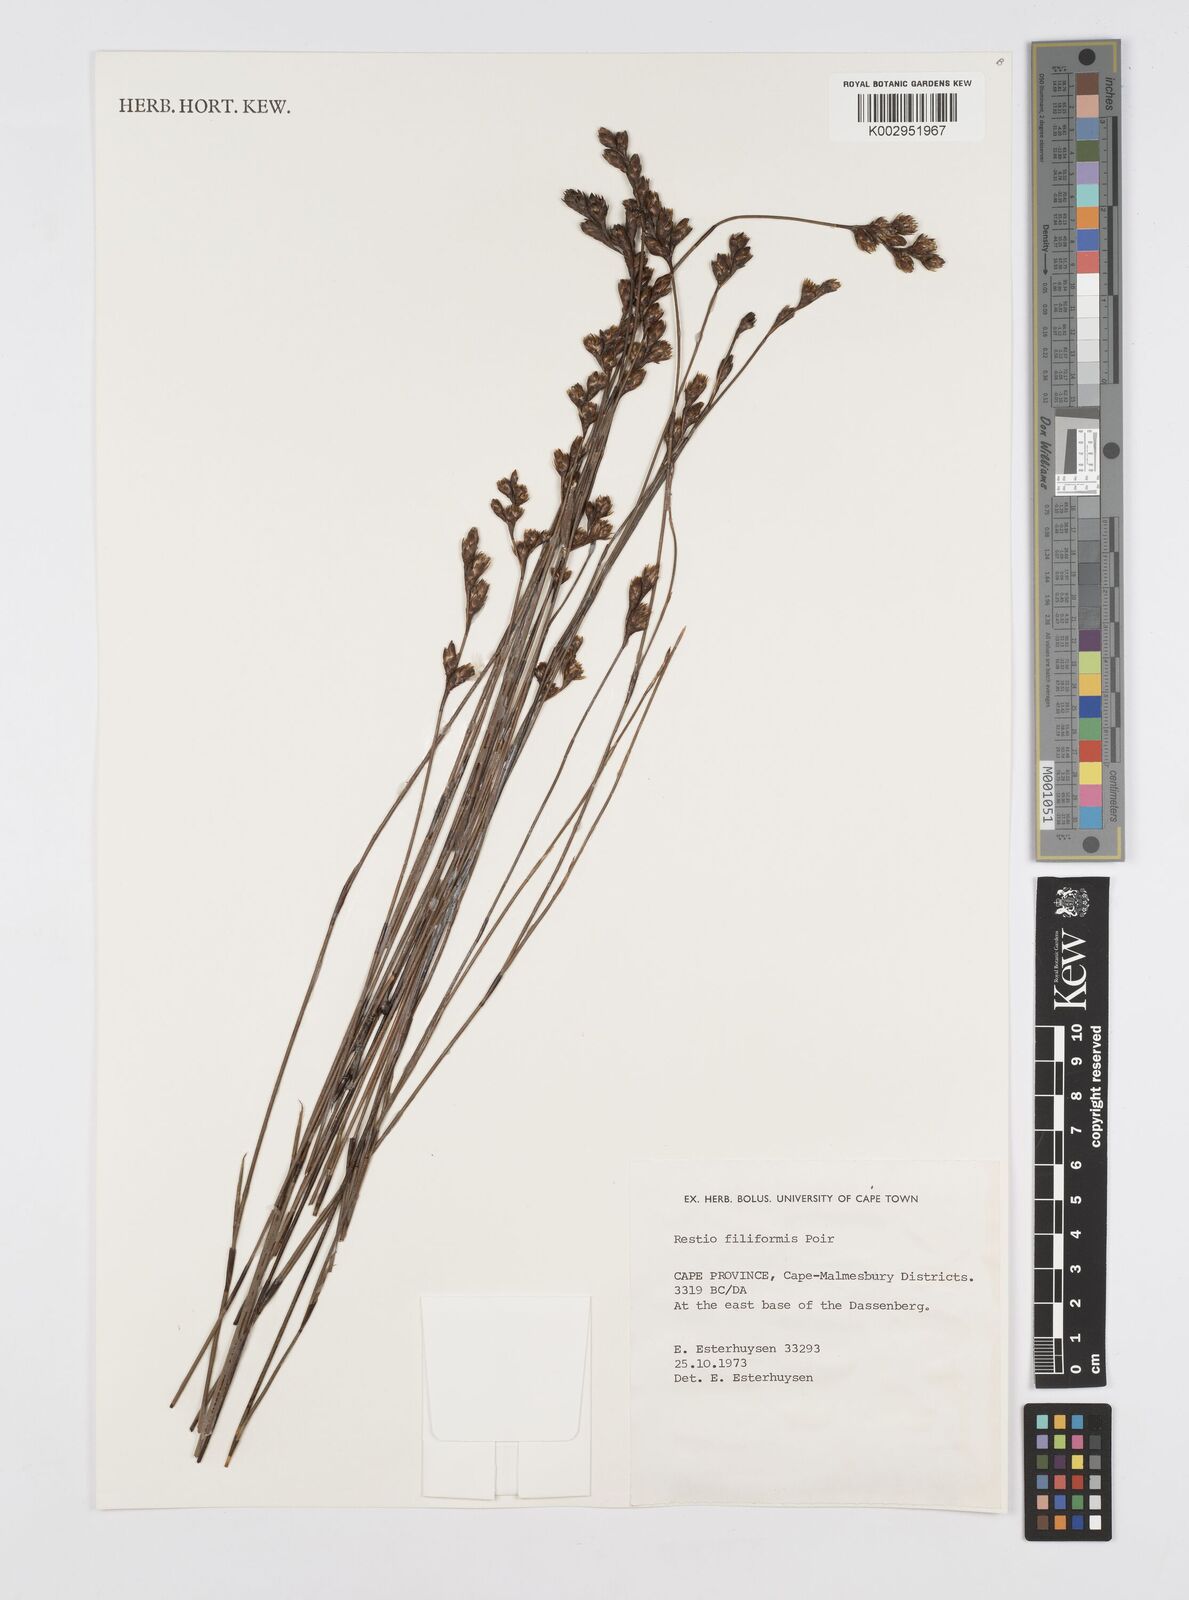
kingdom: Plantae
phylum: Tracheophyta
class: Liliopsida
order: Poales
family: Restionaceae
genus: Restio
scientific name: Restio filiformis
